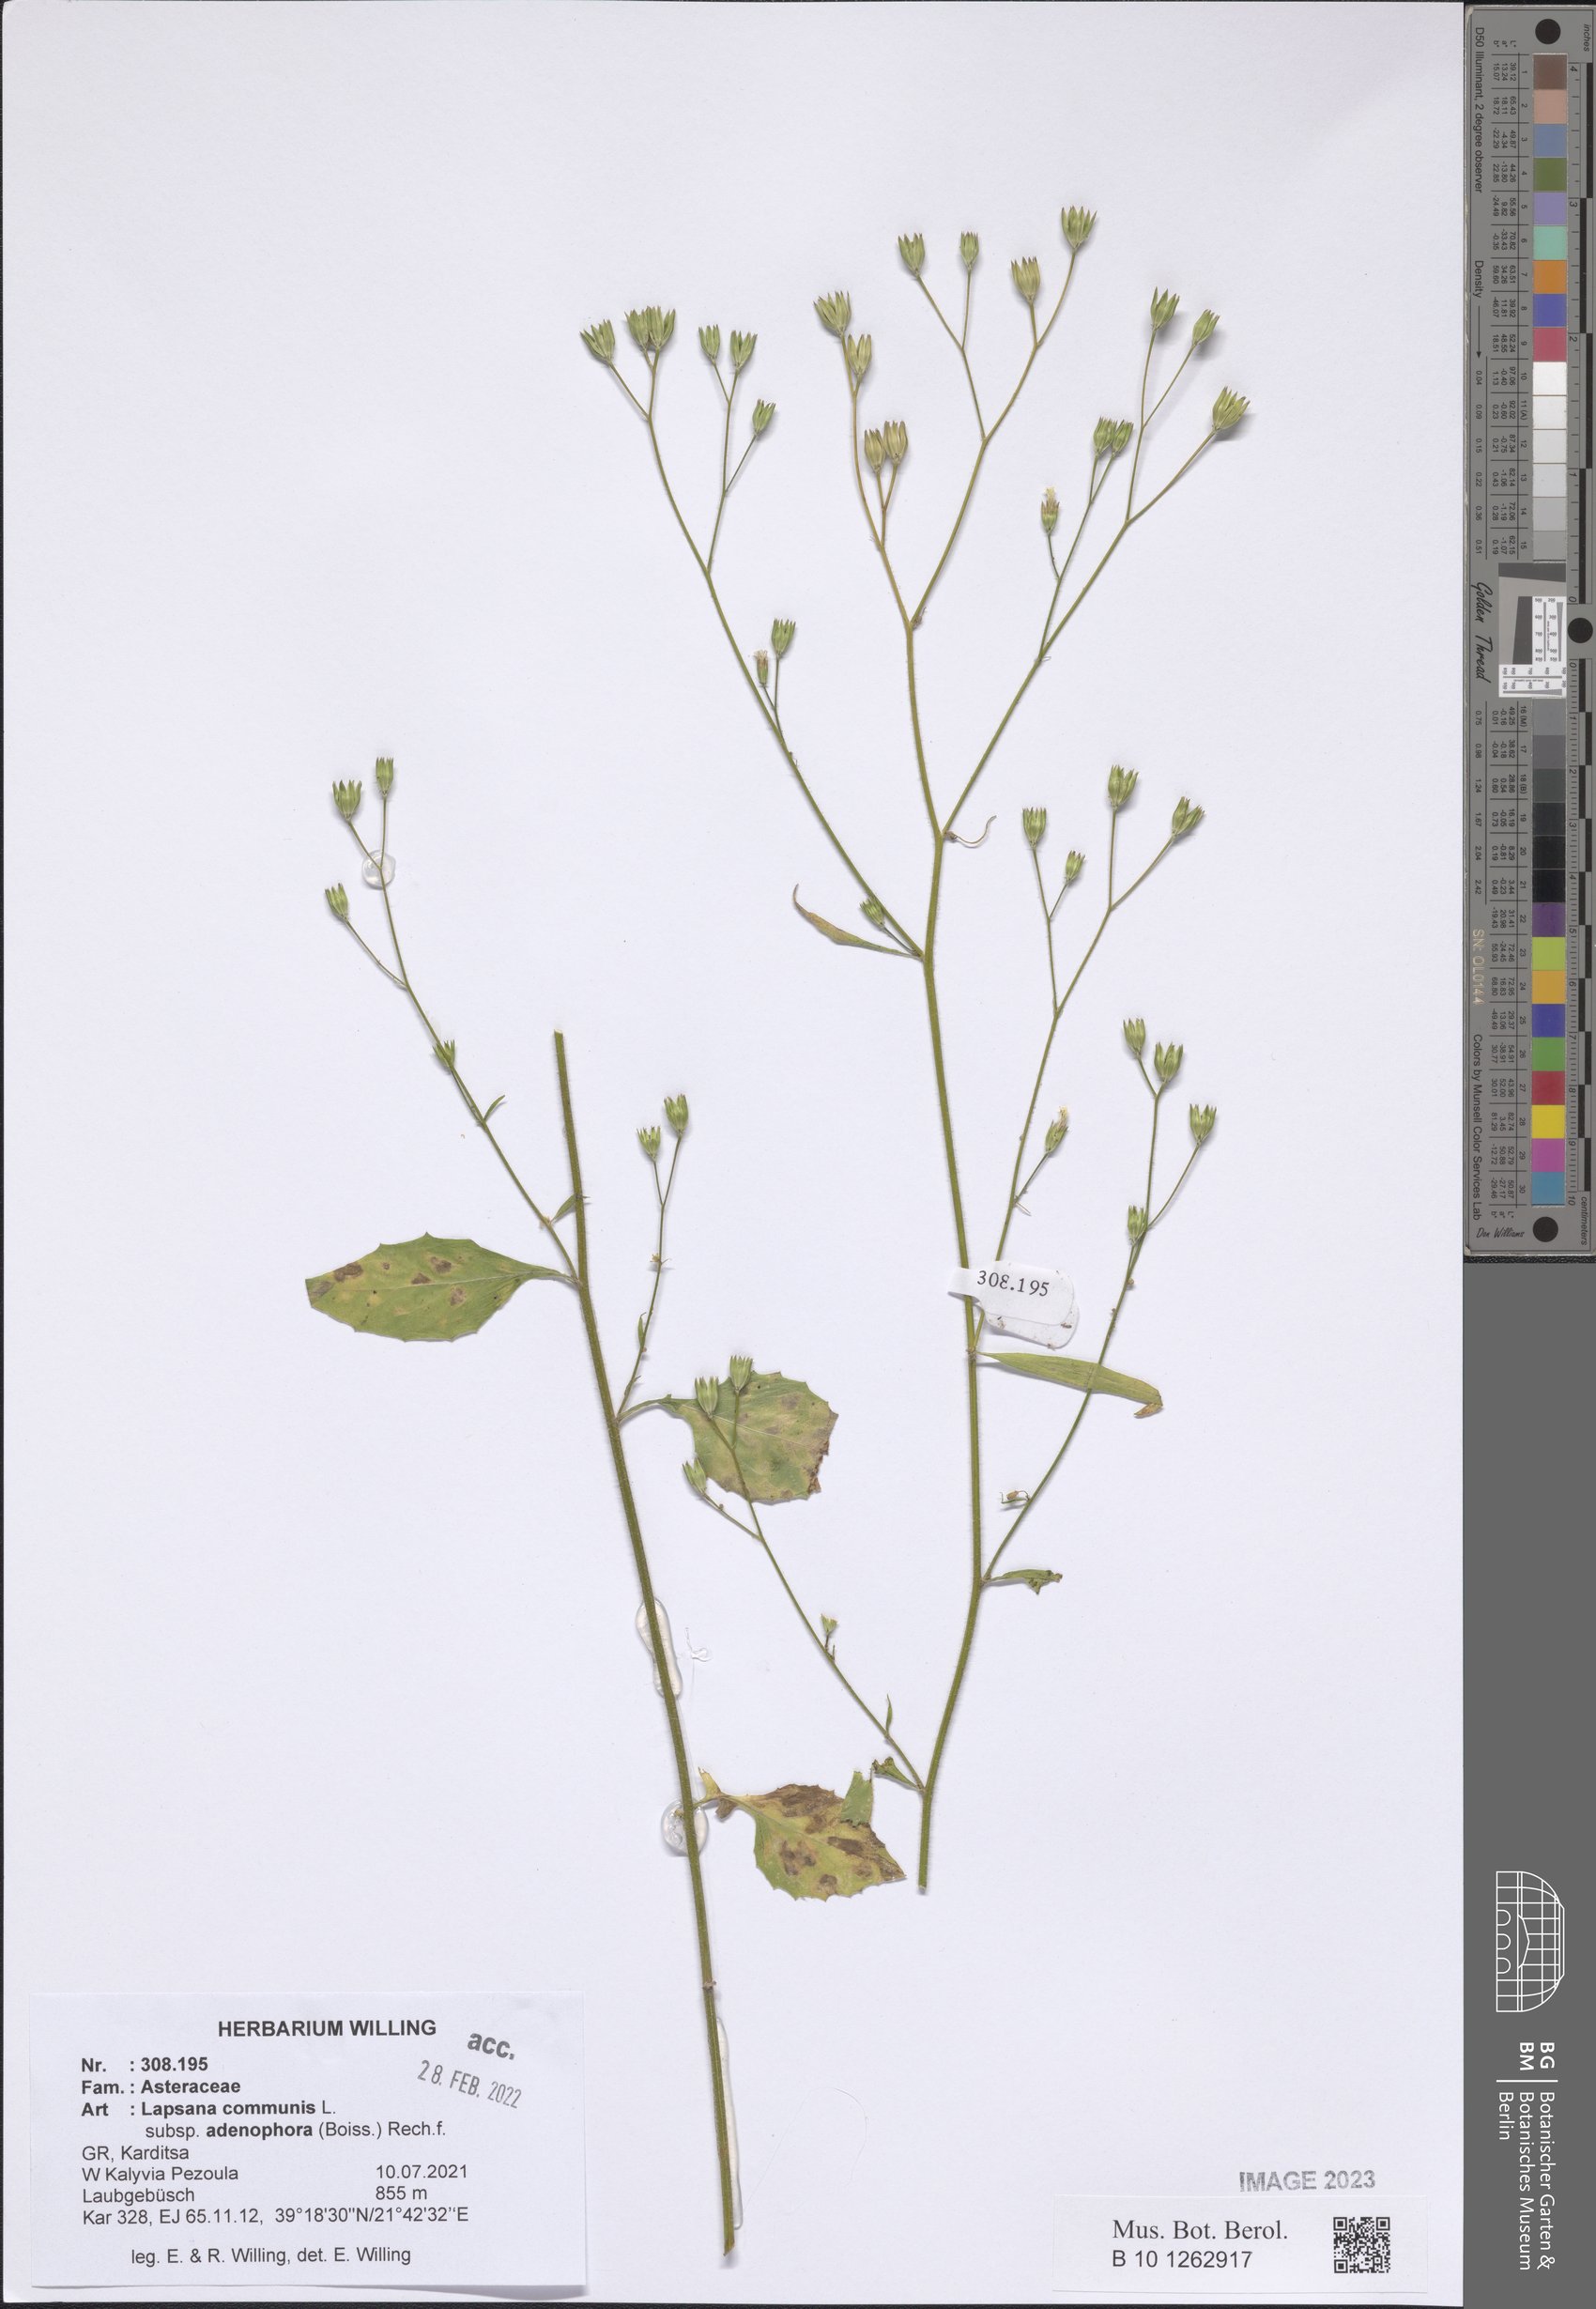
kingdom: Plantae
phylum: Tracheophyta
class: Magnoliopsida
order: Asterales
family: Asteraceae
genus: Lapsana
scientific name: Lapsana communis
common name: Nipplewort
